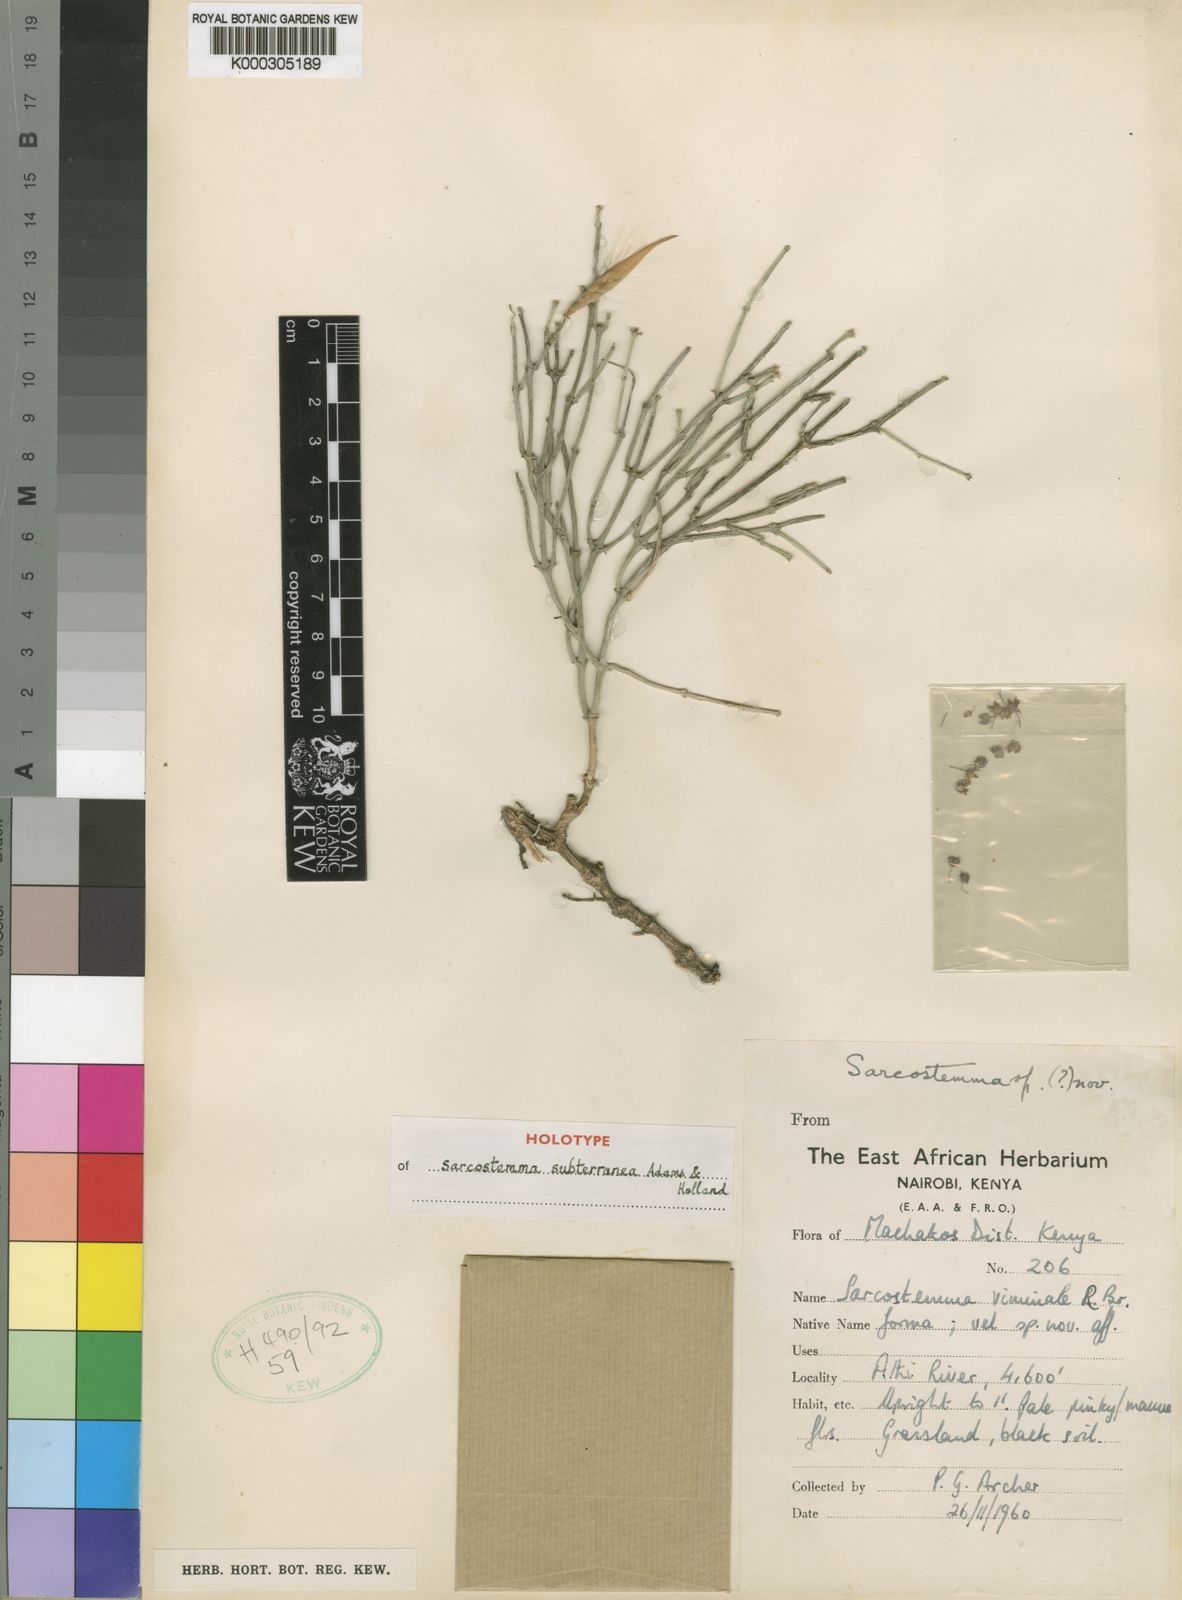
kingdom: Plantae
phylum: Tracheophyta
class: Magnoliopsida
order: Gentianales
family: Apocynaceae
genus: Cynanchum
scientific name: Cynanchum vanlessenii
